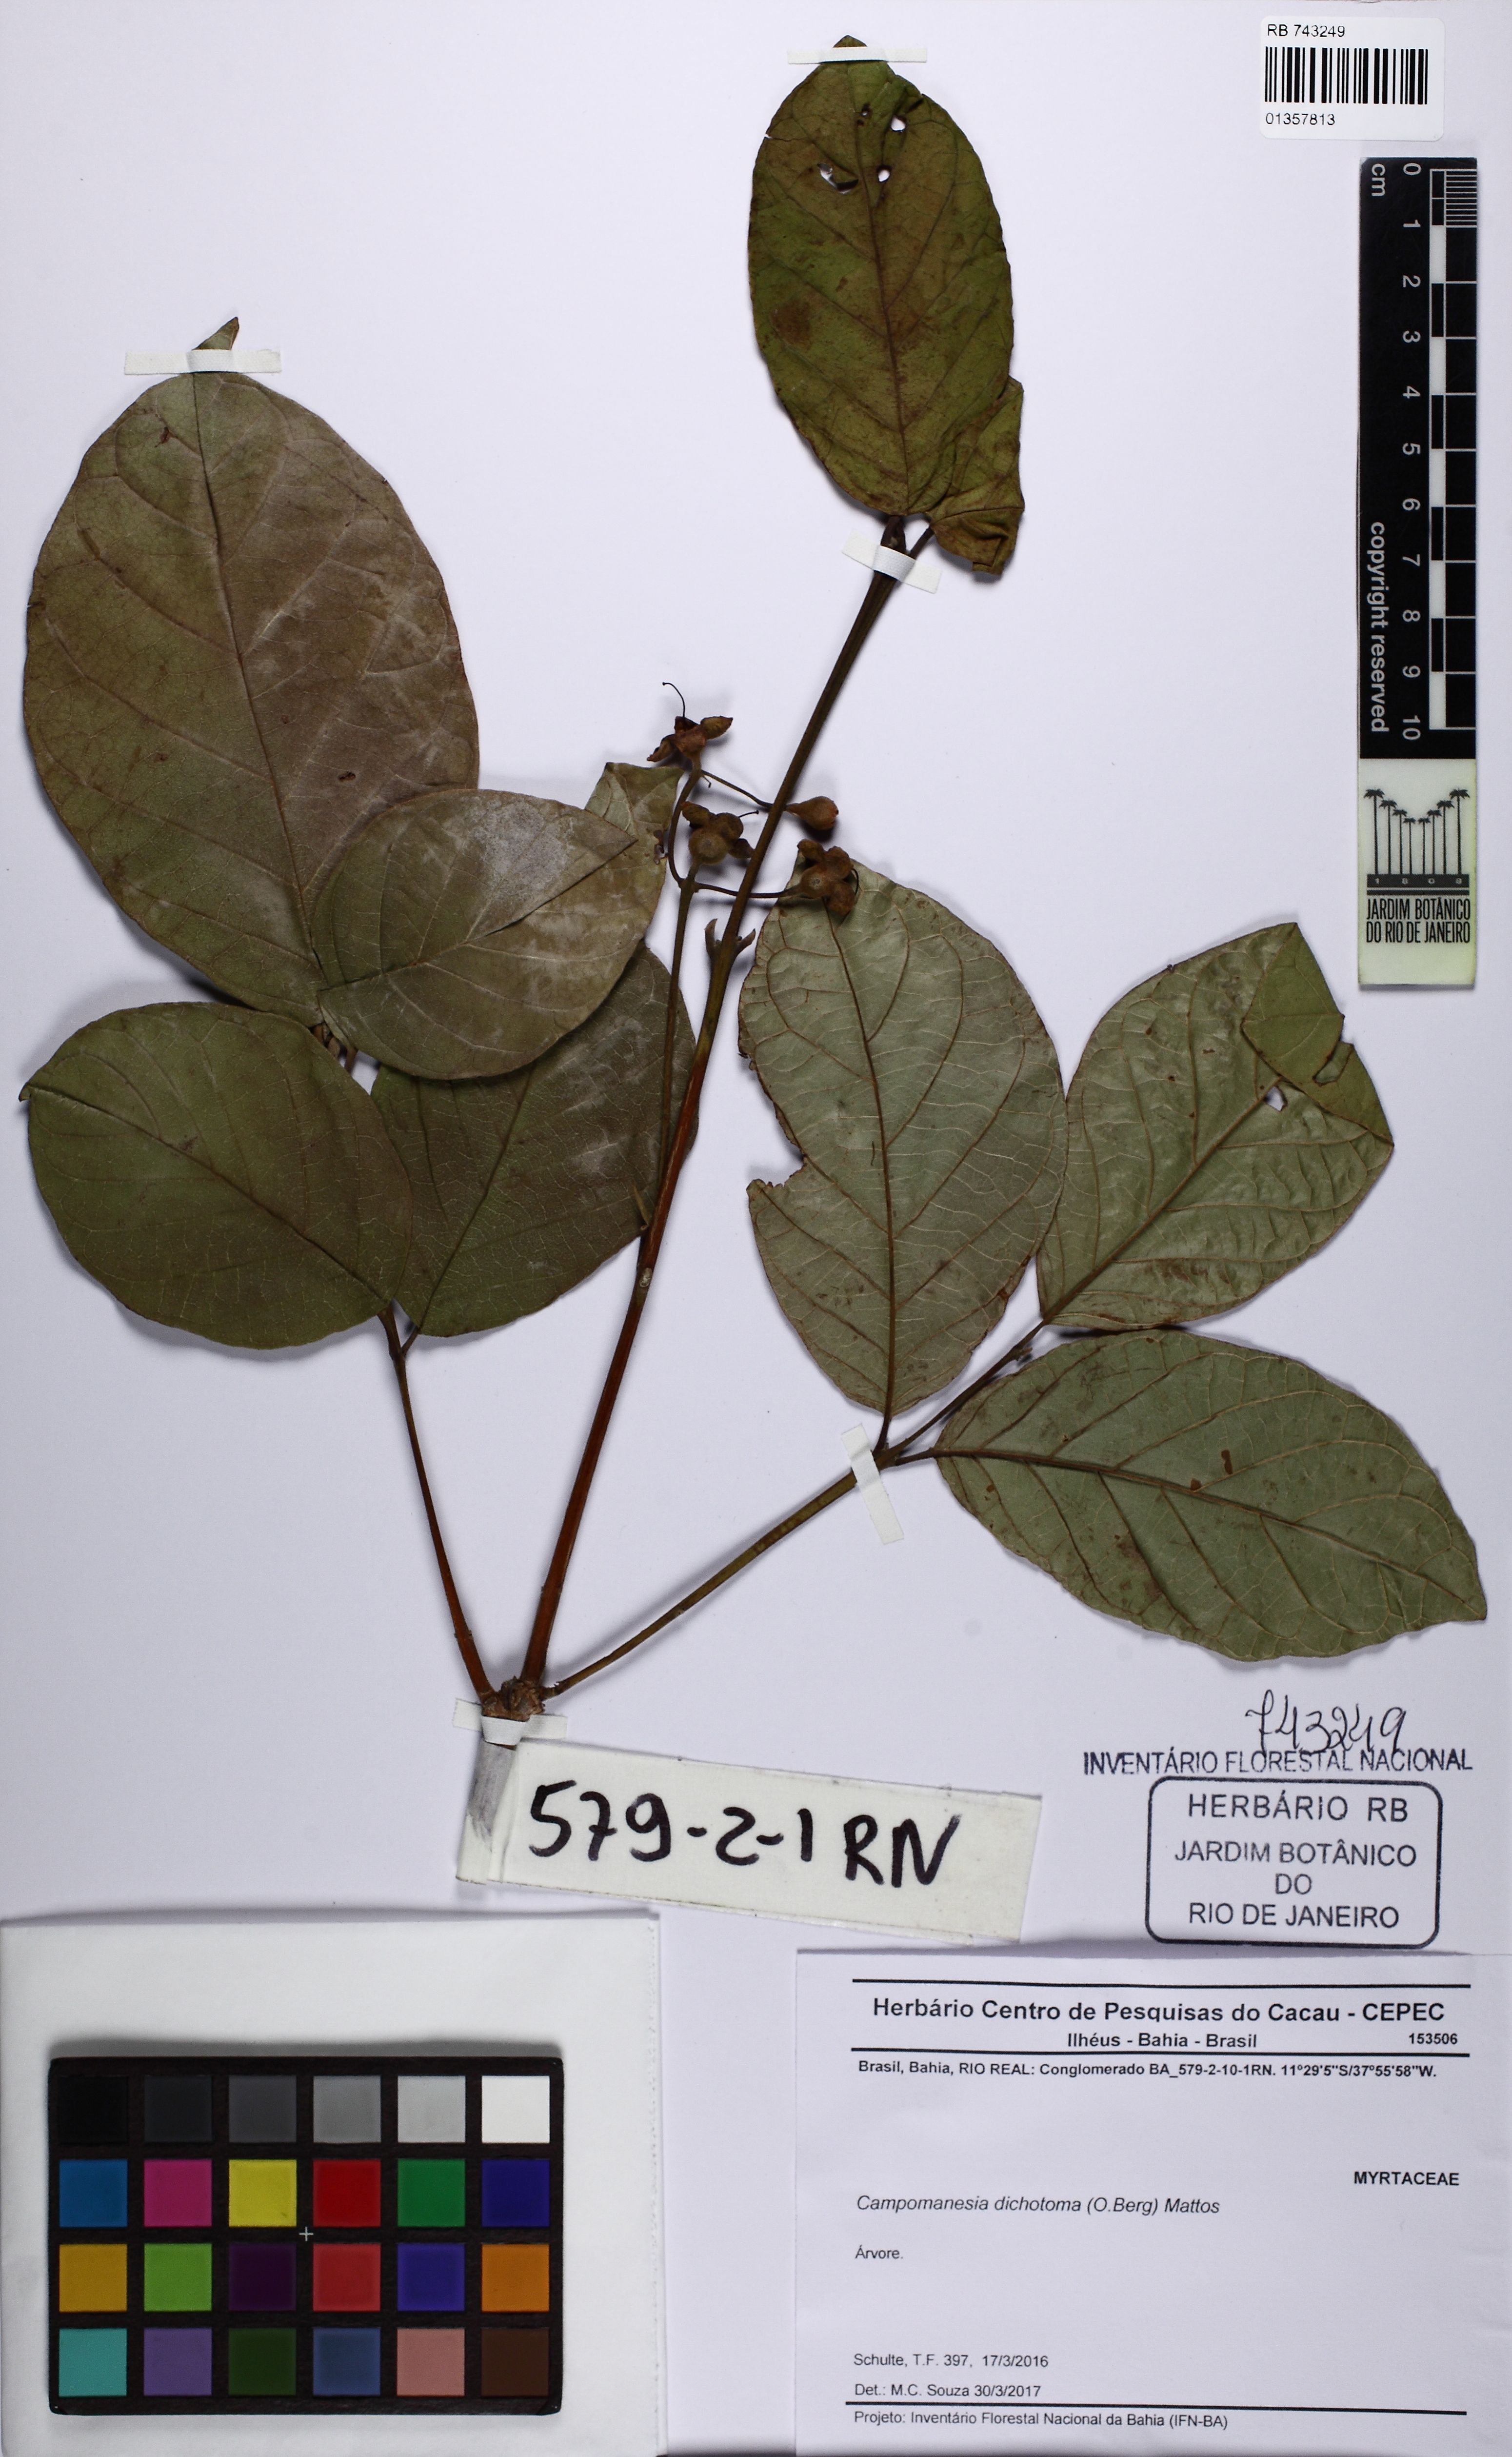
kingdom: Plantae
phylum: Tracheophyta
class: Magnoliopsida
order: Myrtales
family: Myrtaceae
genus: Campomanesia
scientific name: Campomanesia dichotoma
